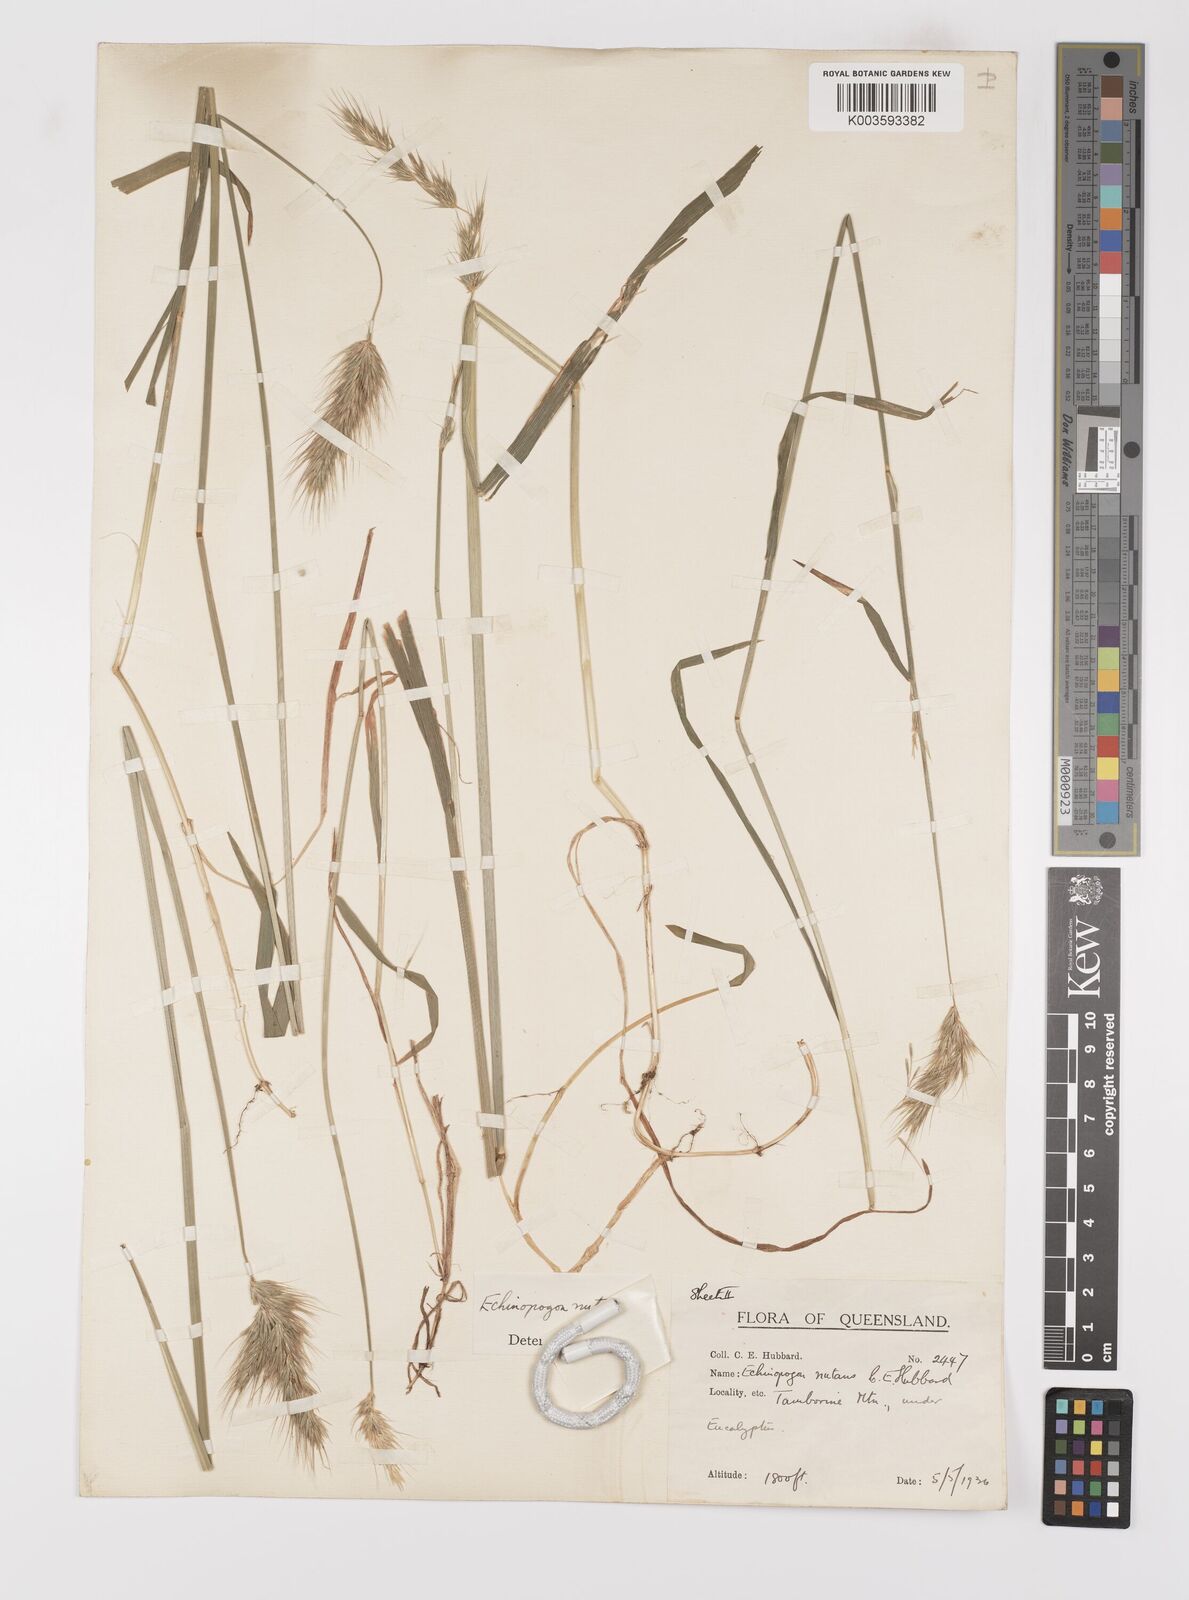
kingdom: Plantae
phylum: Tracheophyta
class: Liliopsida
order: Poales
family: Poaceae
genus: Echinopogon
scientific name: Echinopogon nutans
